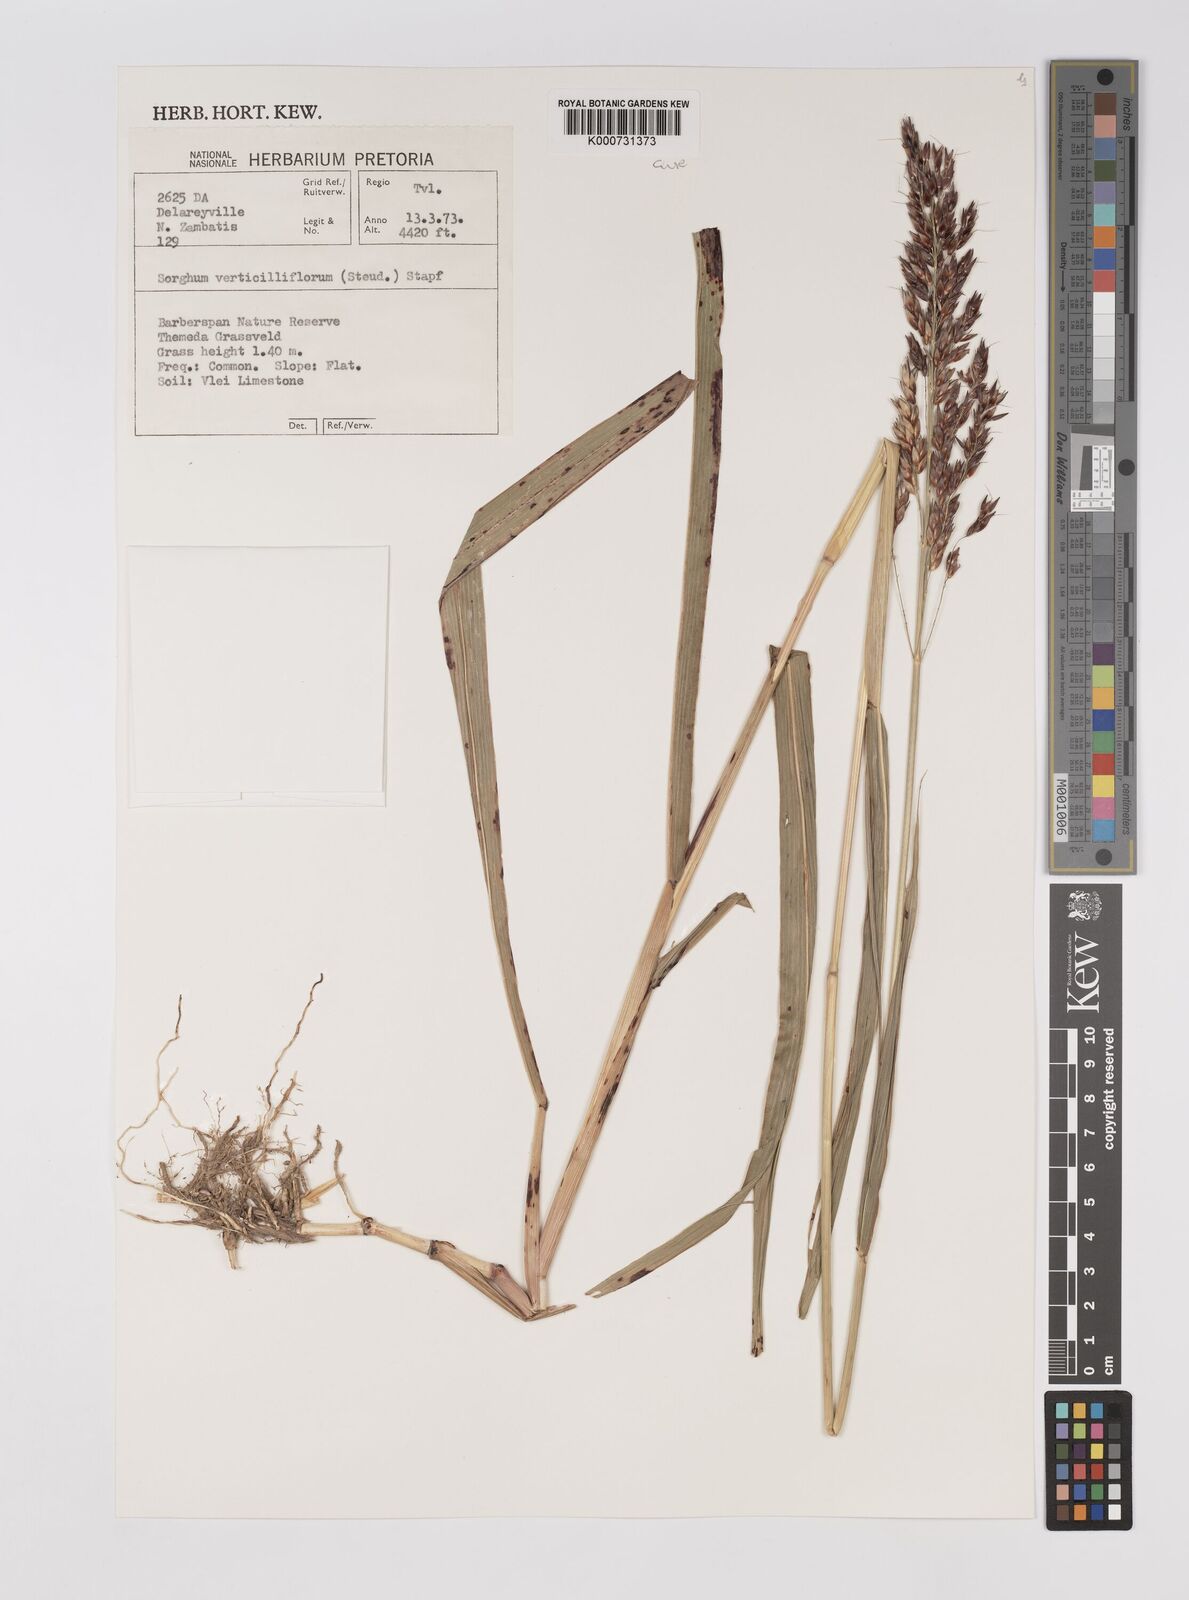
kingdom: Plantae
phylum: Tracheophyta
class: Liliopsida
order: Poales
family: Poaceae
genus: Sorghum
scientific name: Sorghum arundinaceum
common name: Sorghum
